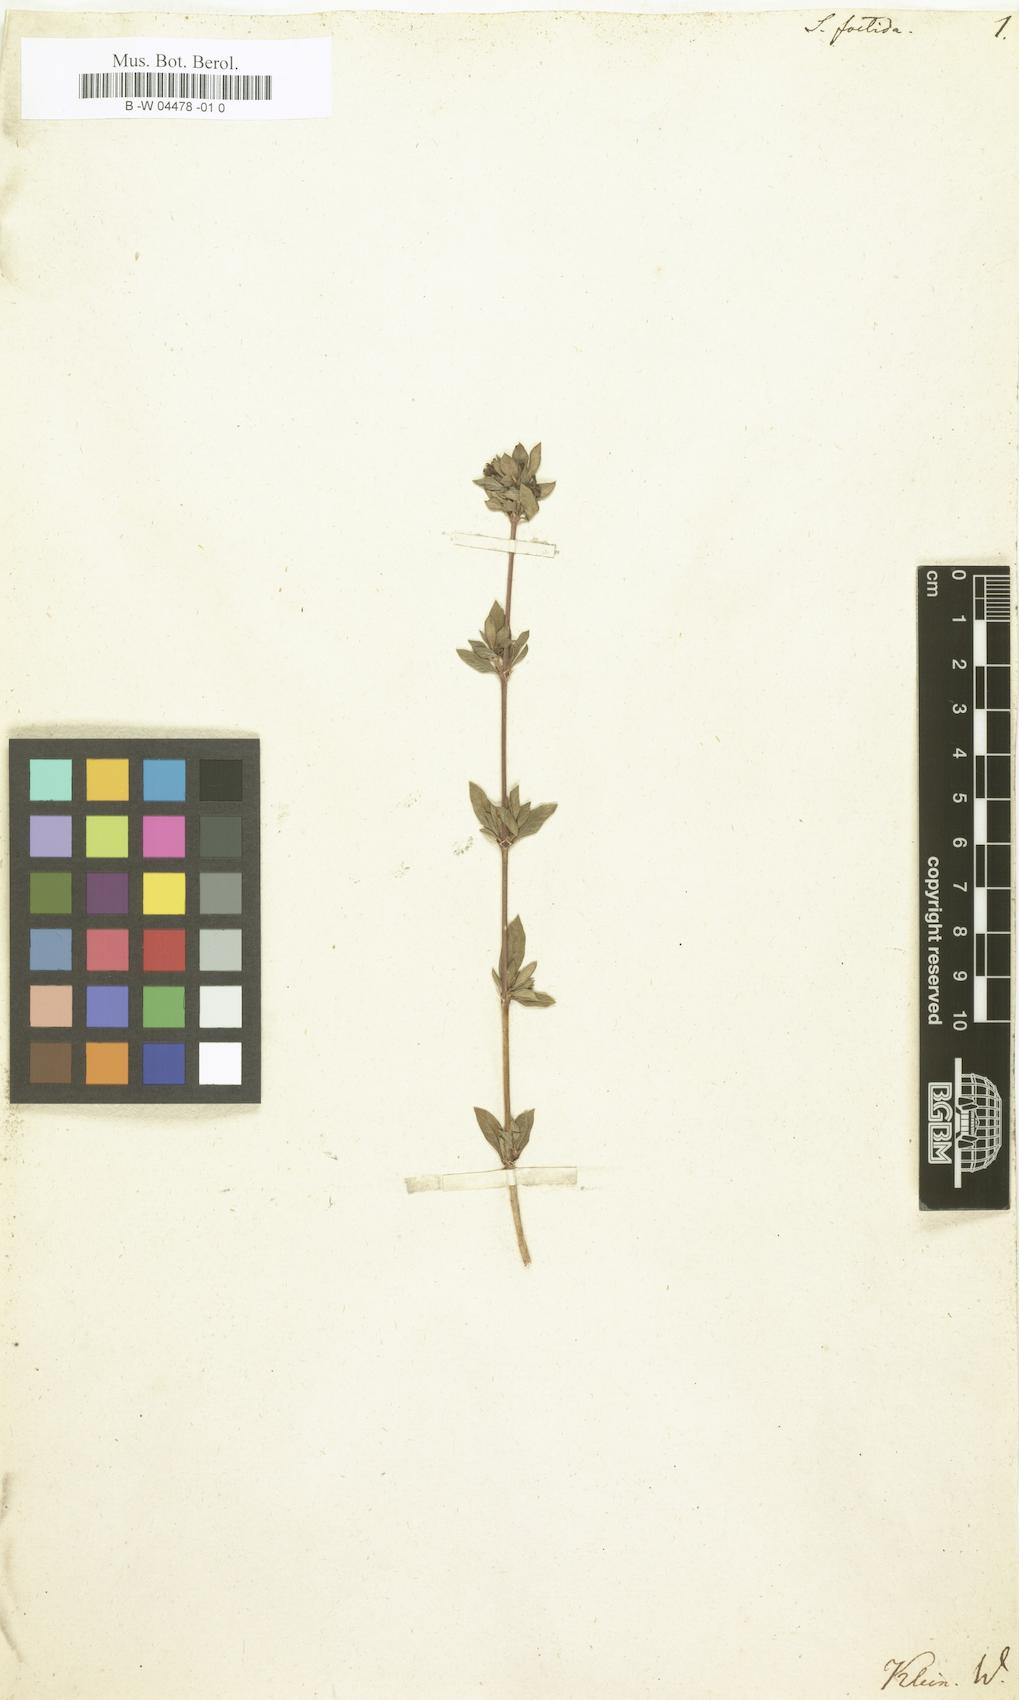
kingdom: Plantae
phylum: Tracheophyta
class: Magnoliopsida
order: Gentianales
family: Rubiaceae
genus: Buchozia
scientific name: Buchozia japonica
